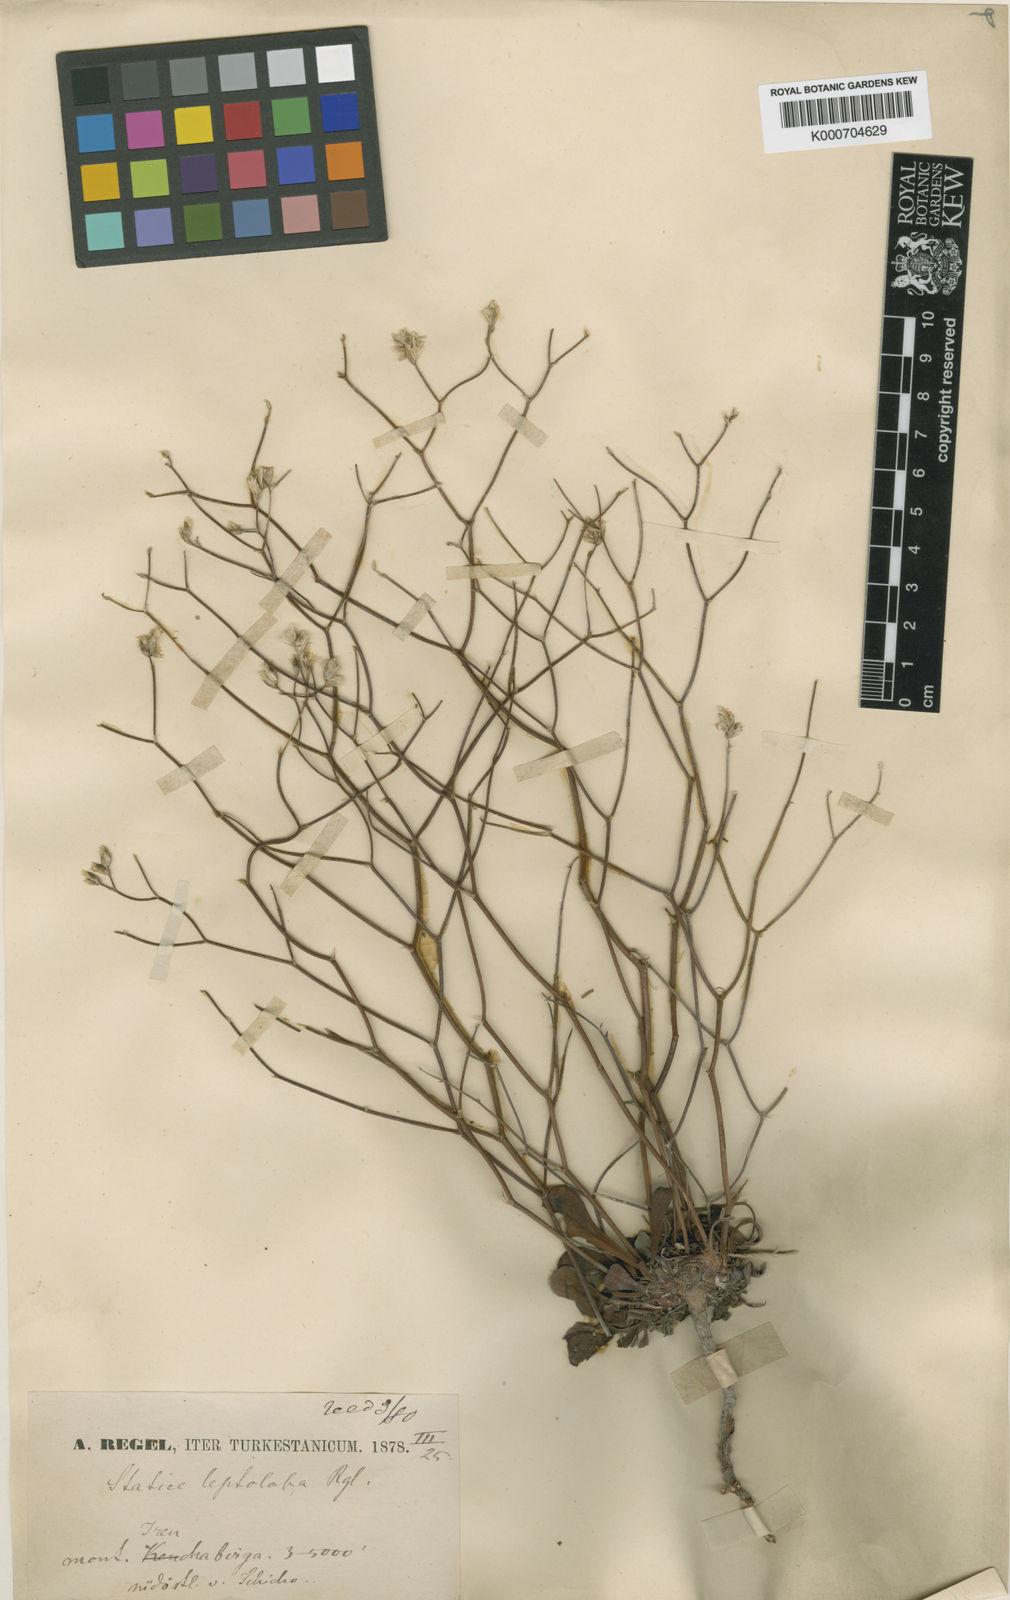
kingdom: Plantae
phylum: Tracheophyta
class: Magnoliopsida
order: Caryophyllales
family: Plumbaginaceae
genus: Limonium
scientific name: Limonium leptolobum
